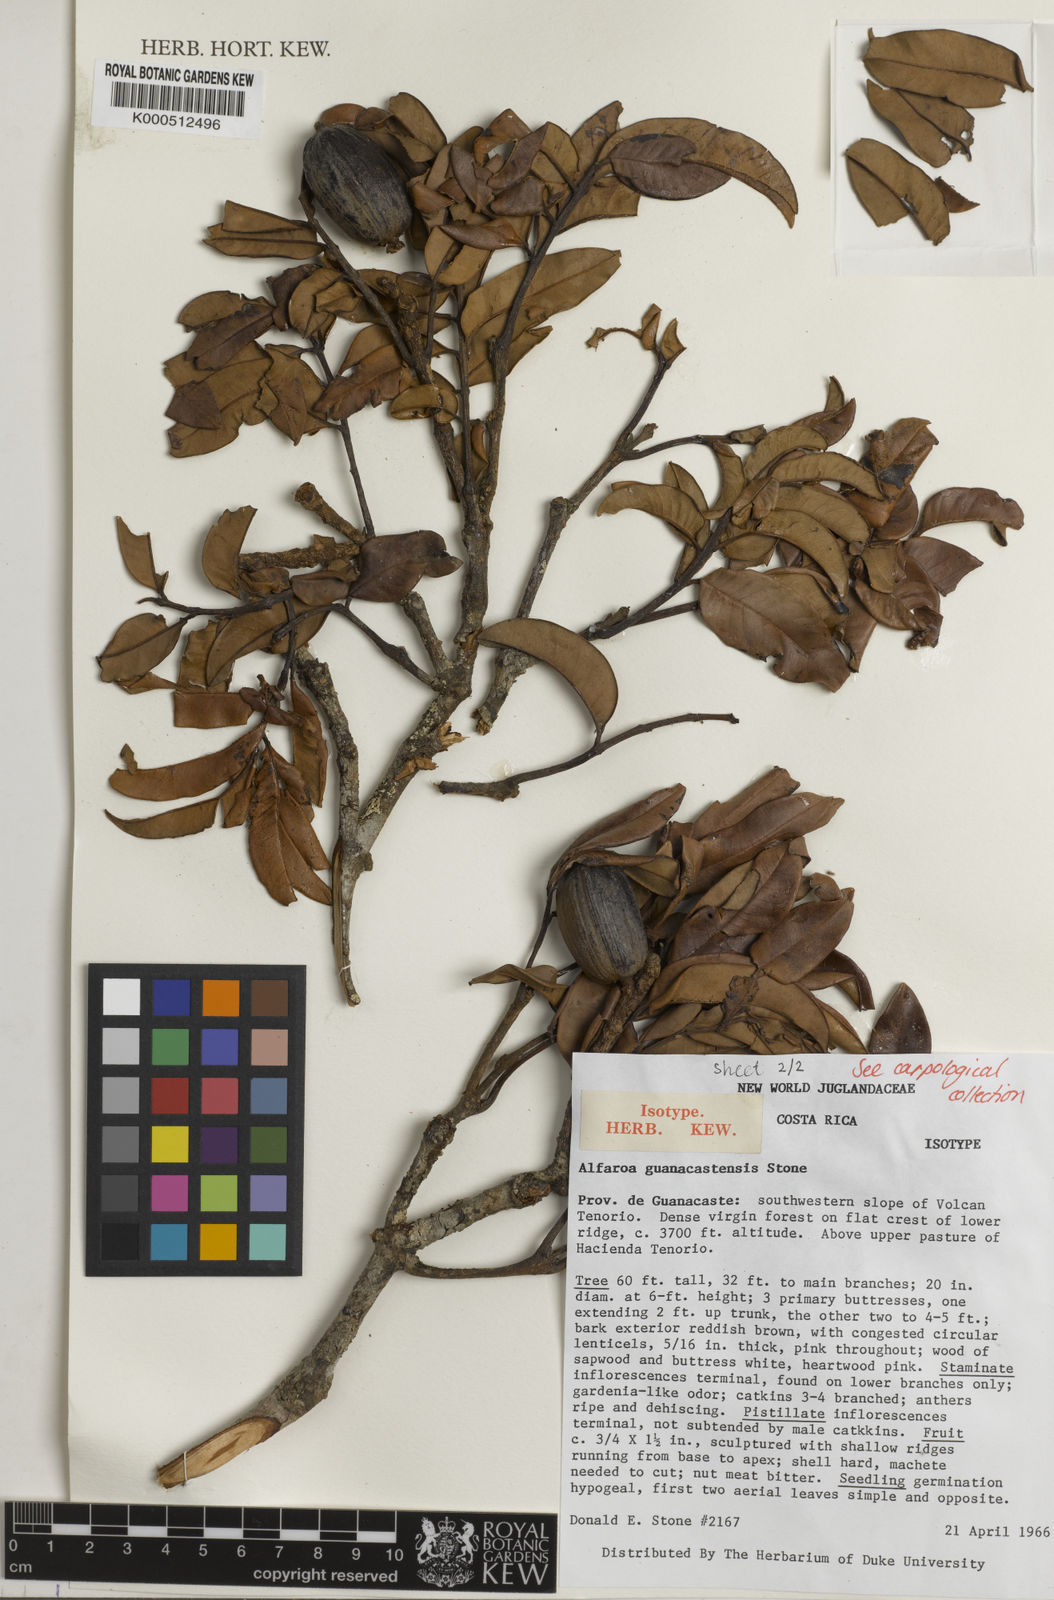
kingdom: Plantae
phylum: Tracheophyta
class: Magnoliopsida
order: Fagales
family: Juglandaceae
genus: Alfaroa
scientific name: Alfaroa guanacastensis
